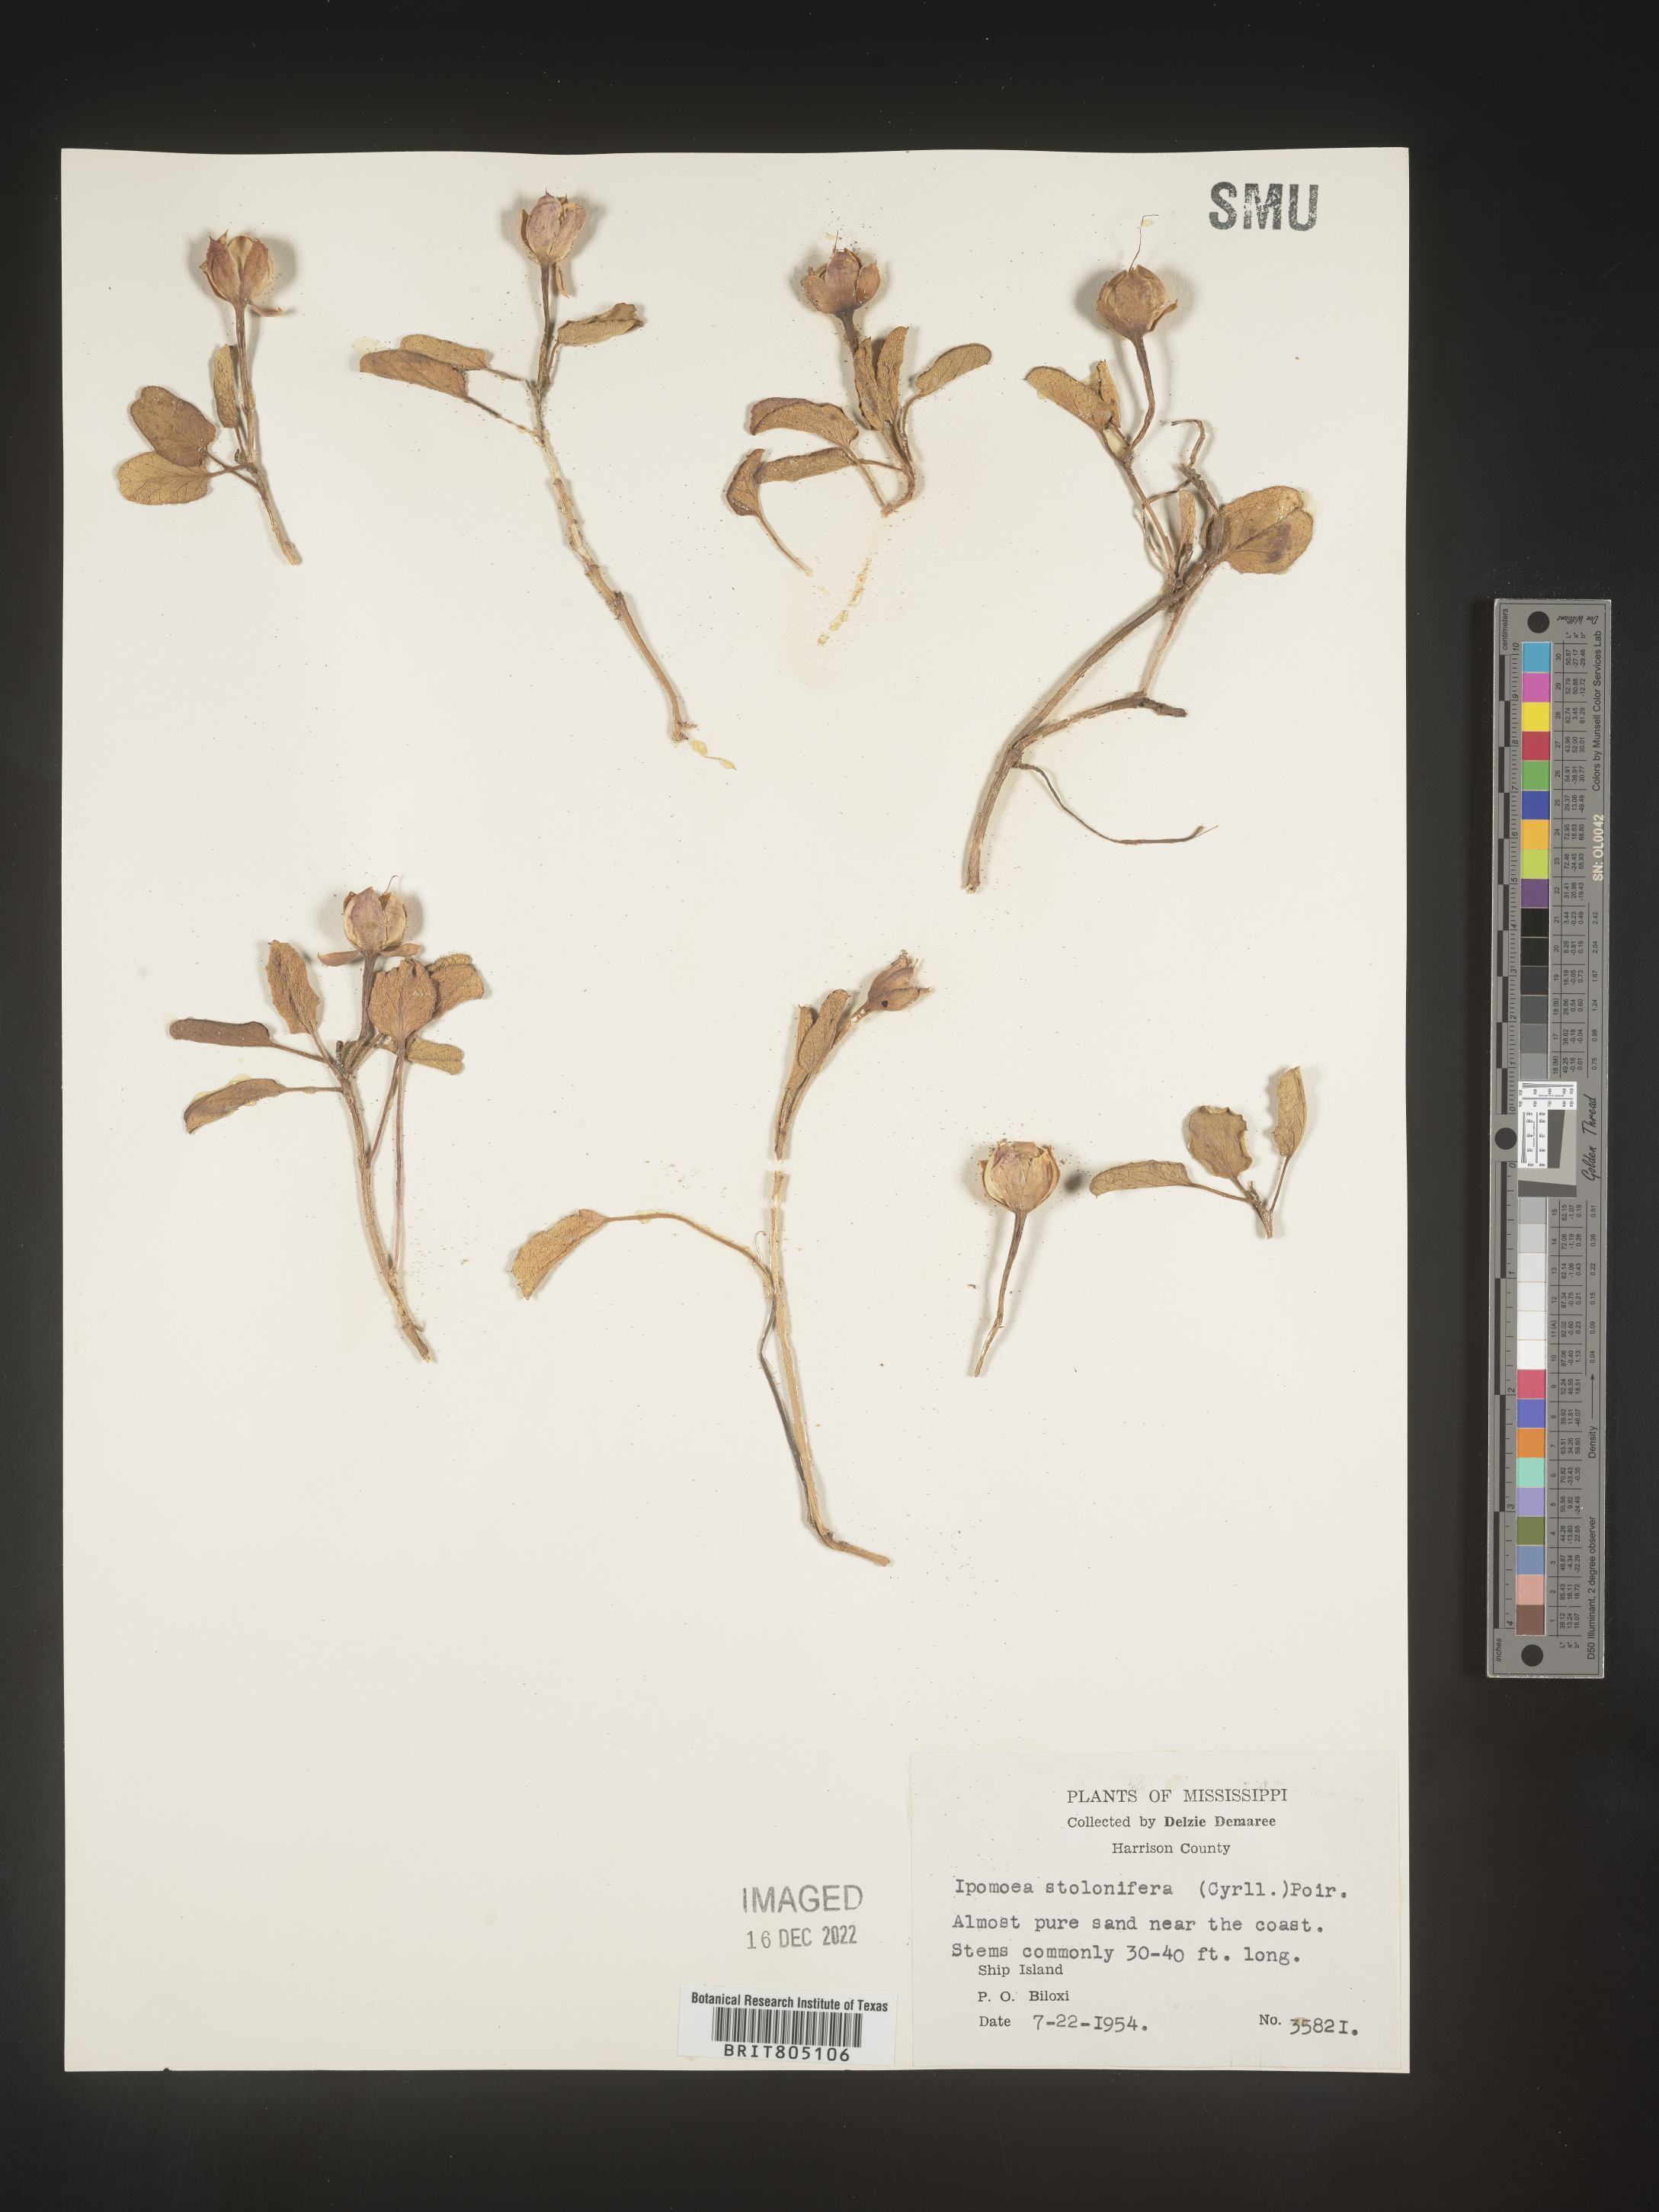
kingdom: Plantae
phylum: Tracheophyta
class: Magnoliopsida
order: Solanales
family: Convolvulaceae
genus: Ipomoea
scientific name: Ipomoea imperati
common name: Fiddle-leaf morning-glory
